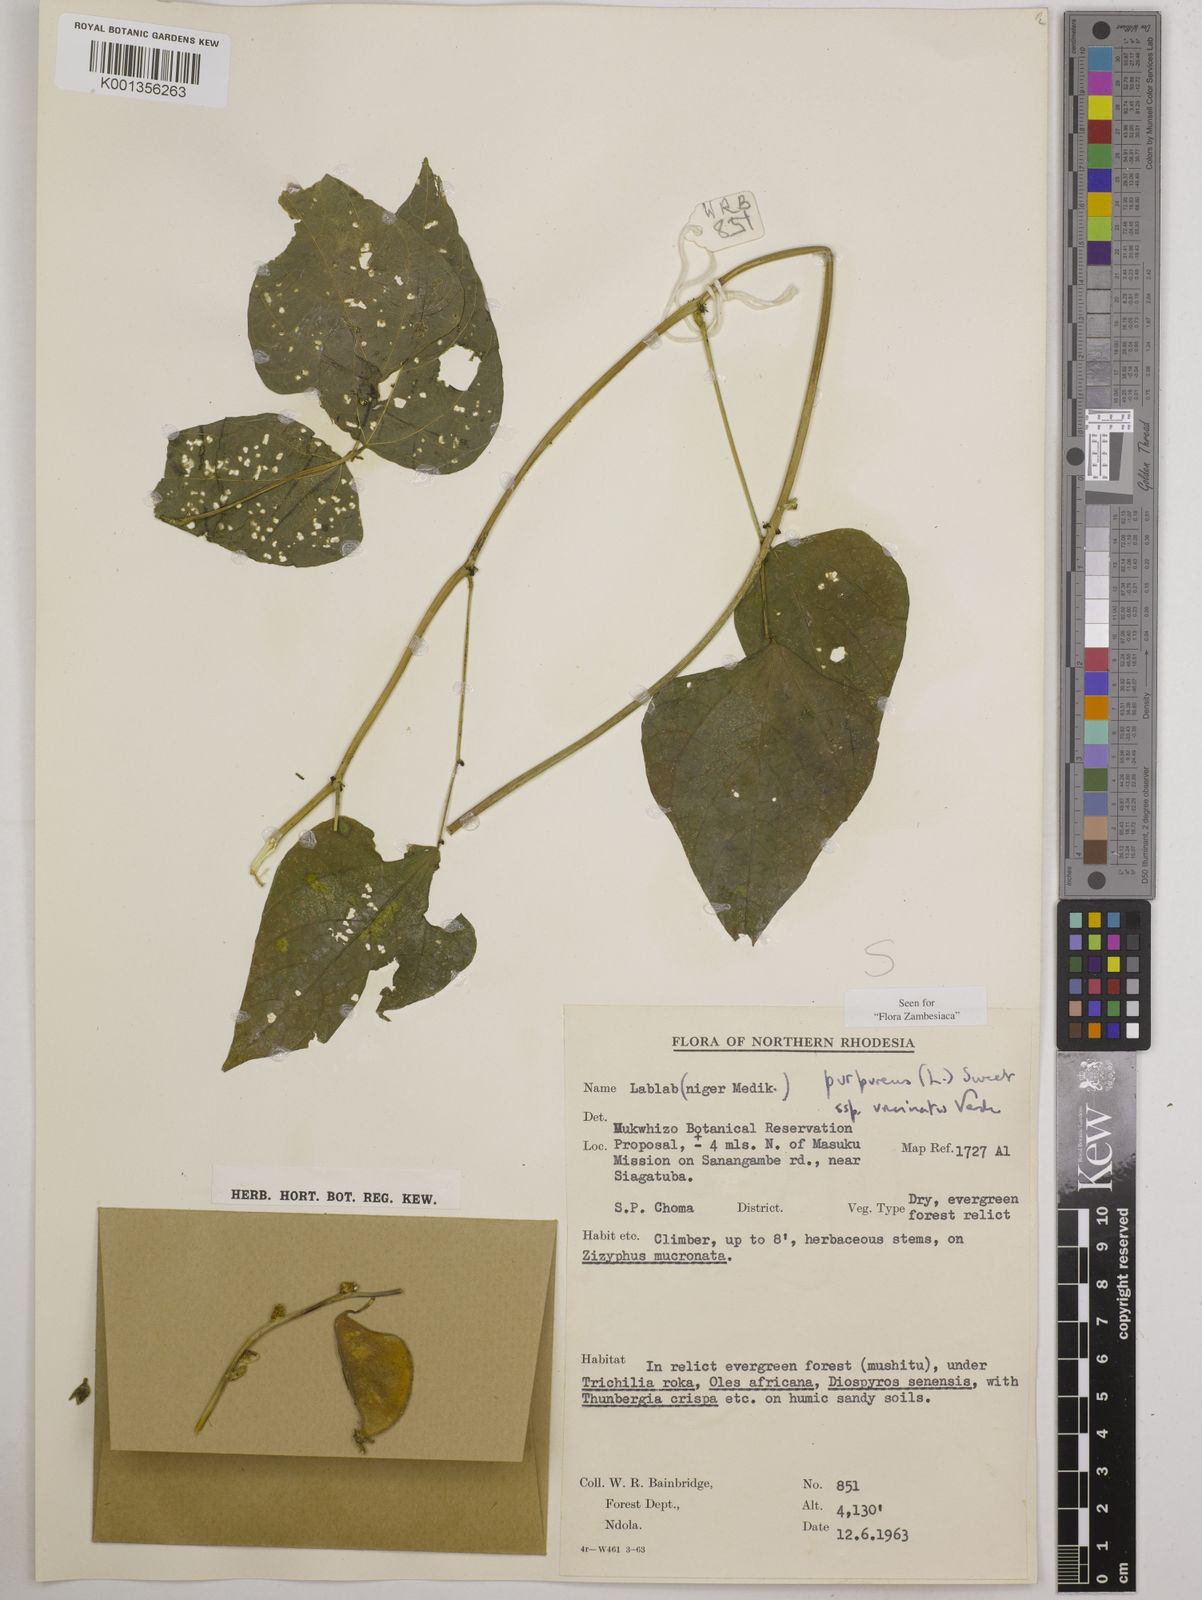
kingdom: Plantae
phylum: Tracheophyta
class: Magnoliopsida
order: Fabales
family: Fabaceae
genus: Lablab
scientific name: Lablab purpureus
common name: Lablab-bean
